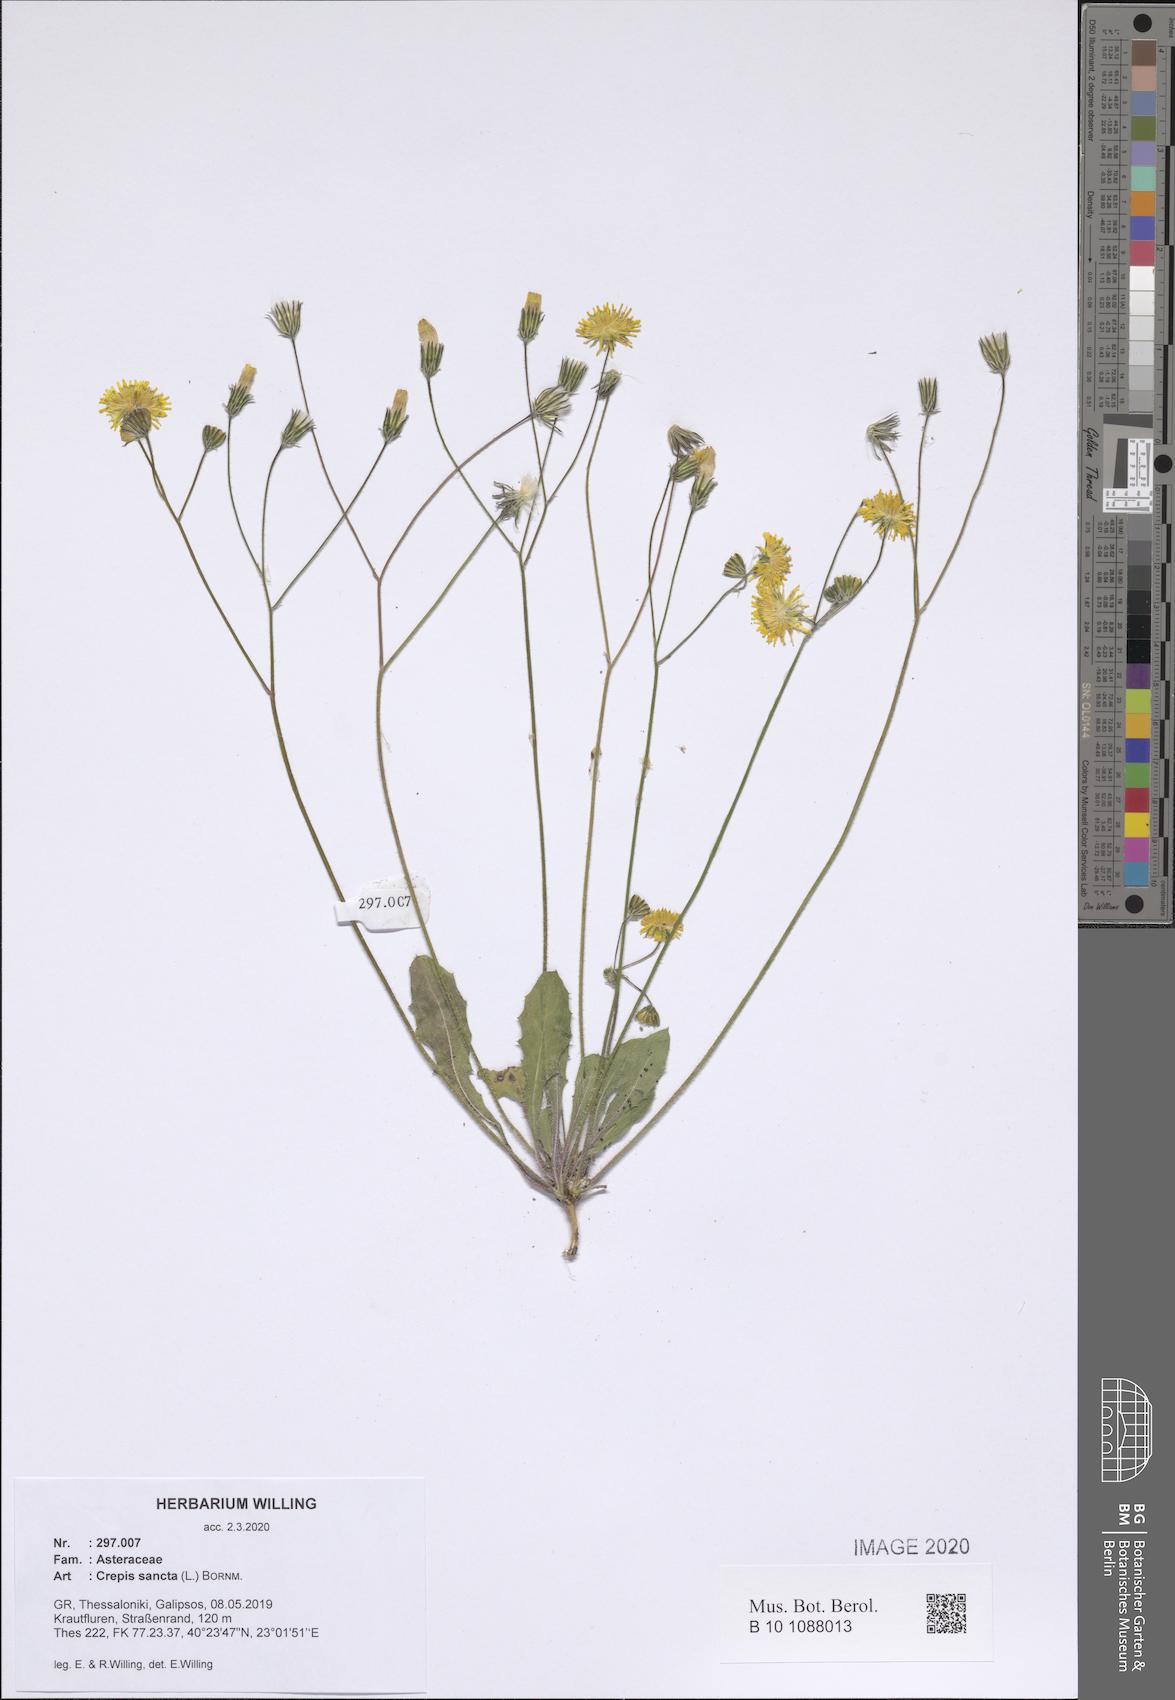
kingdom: Plantae
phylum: Tracheophyta
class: Magnoliopsida
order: Asterales
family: Asteraceae
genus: Crepis
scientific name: Crepis sancta
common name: Hawk's-beard
